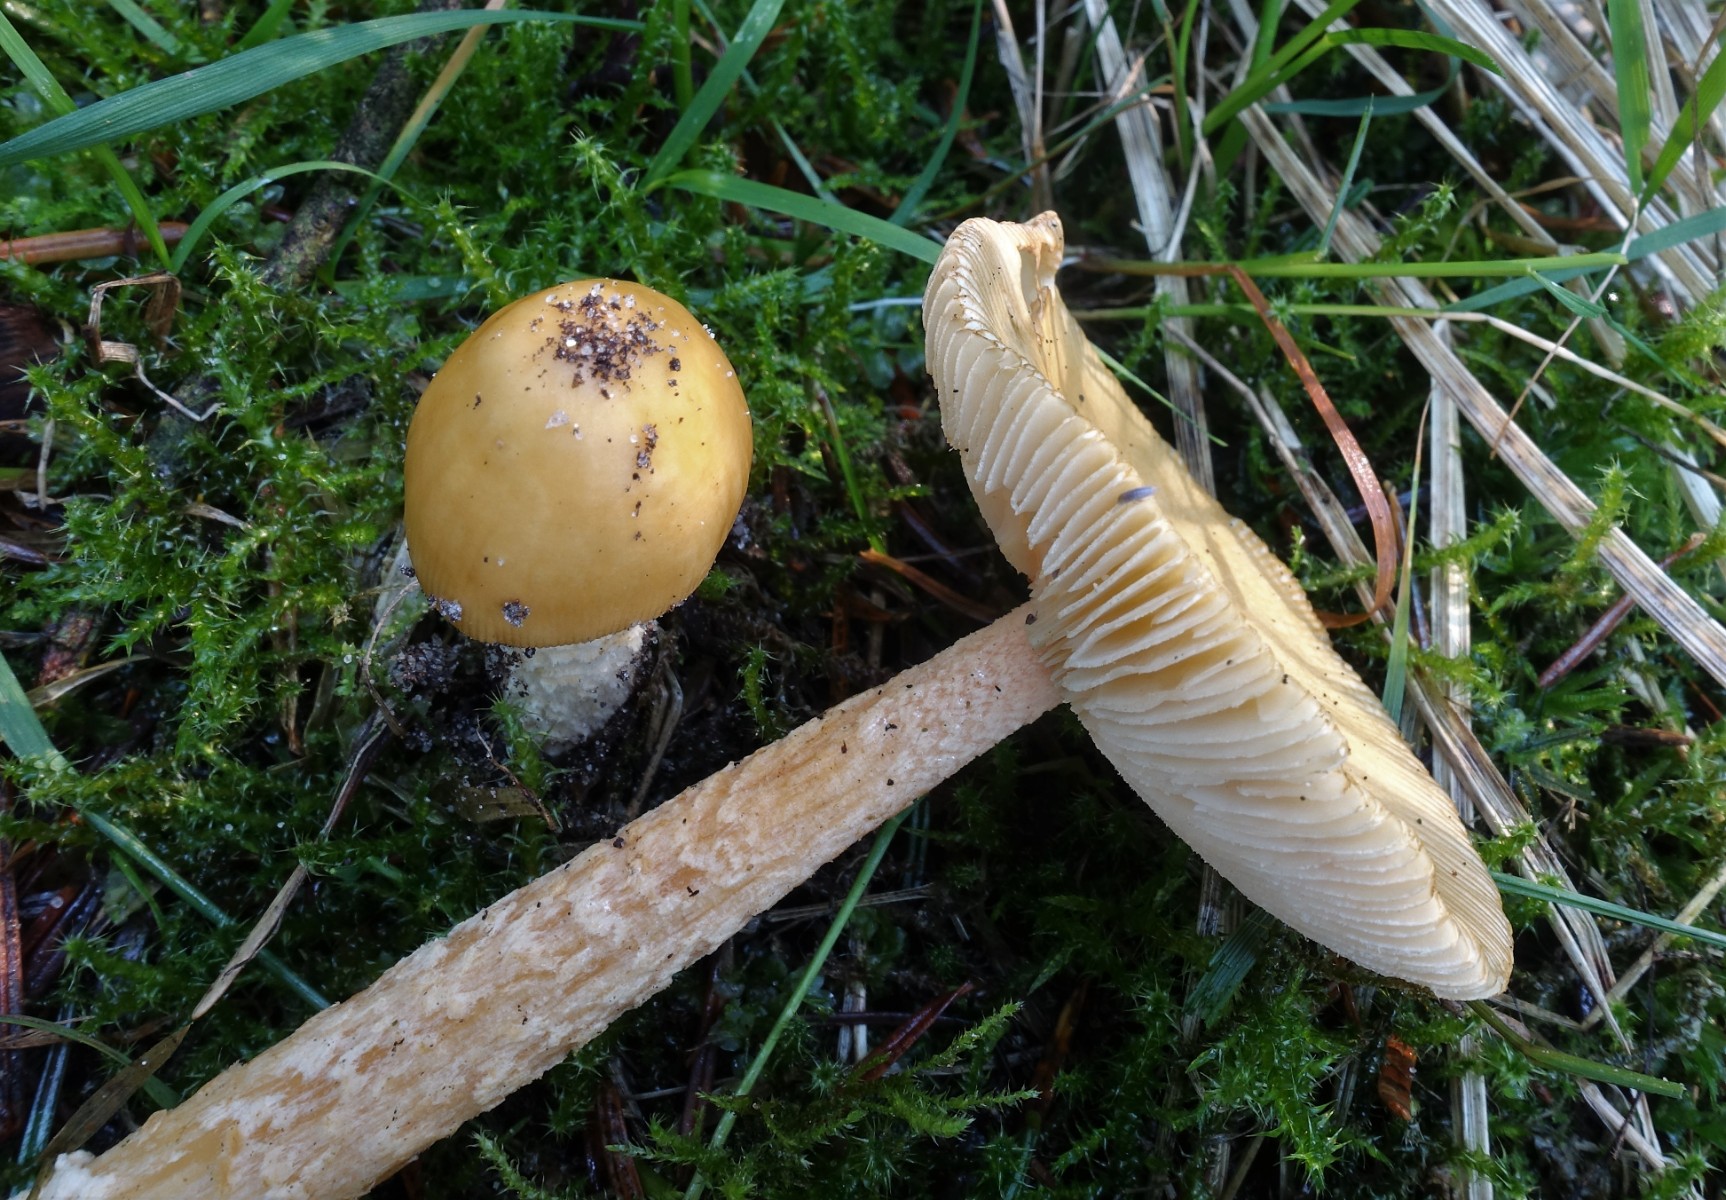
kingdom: Fungi
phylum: Basidiomycota
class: Agaricomycetes
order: Agaricales
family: Amanitaceae
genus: Amanita
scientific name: Amanita crocea
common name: gylden kam-fluesvamp
